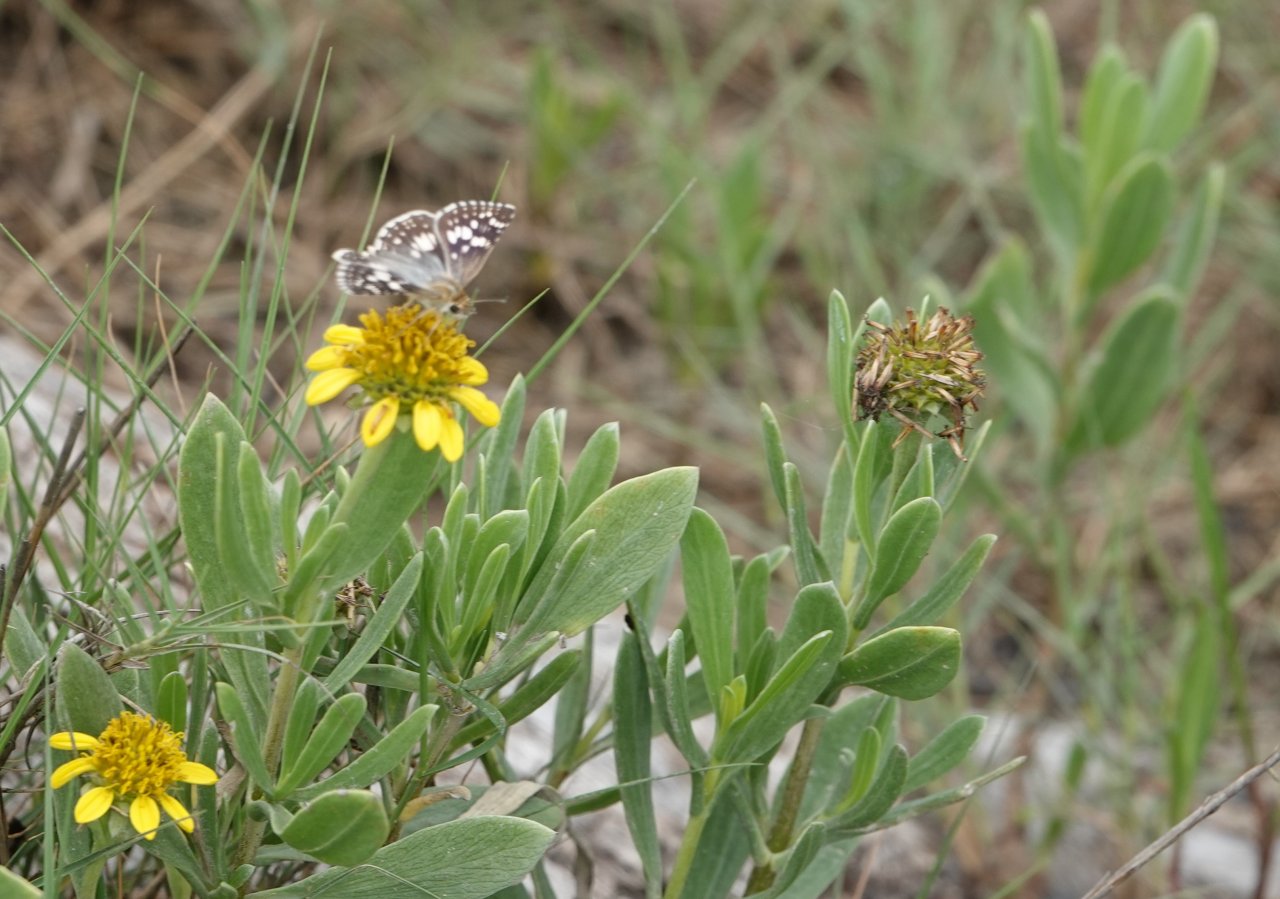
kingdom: Animalia
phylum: Arthropoda
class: Insecta
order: Lepidoptera
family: Hesperiidae
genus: Pyrgus
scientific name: Pyrgus communis
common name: White Checkered-Skipper
